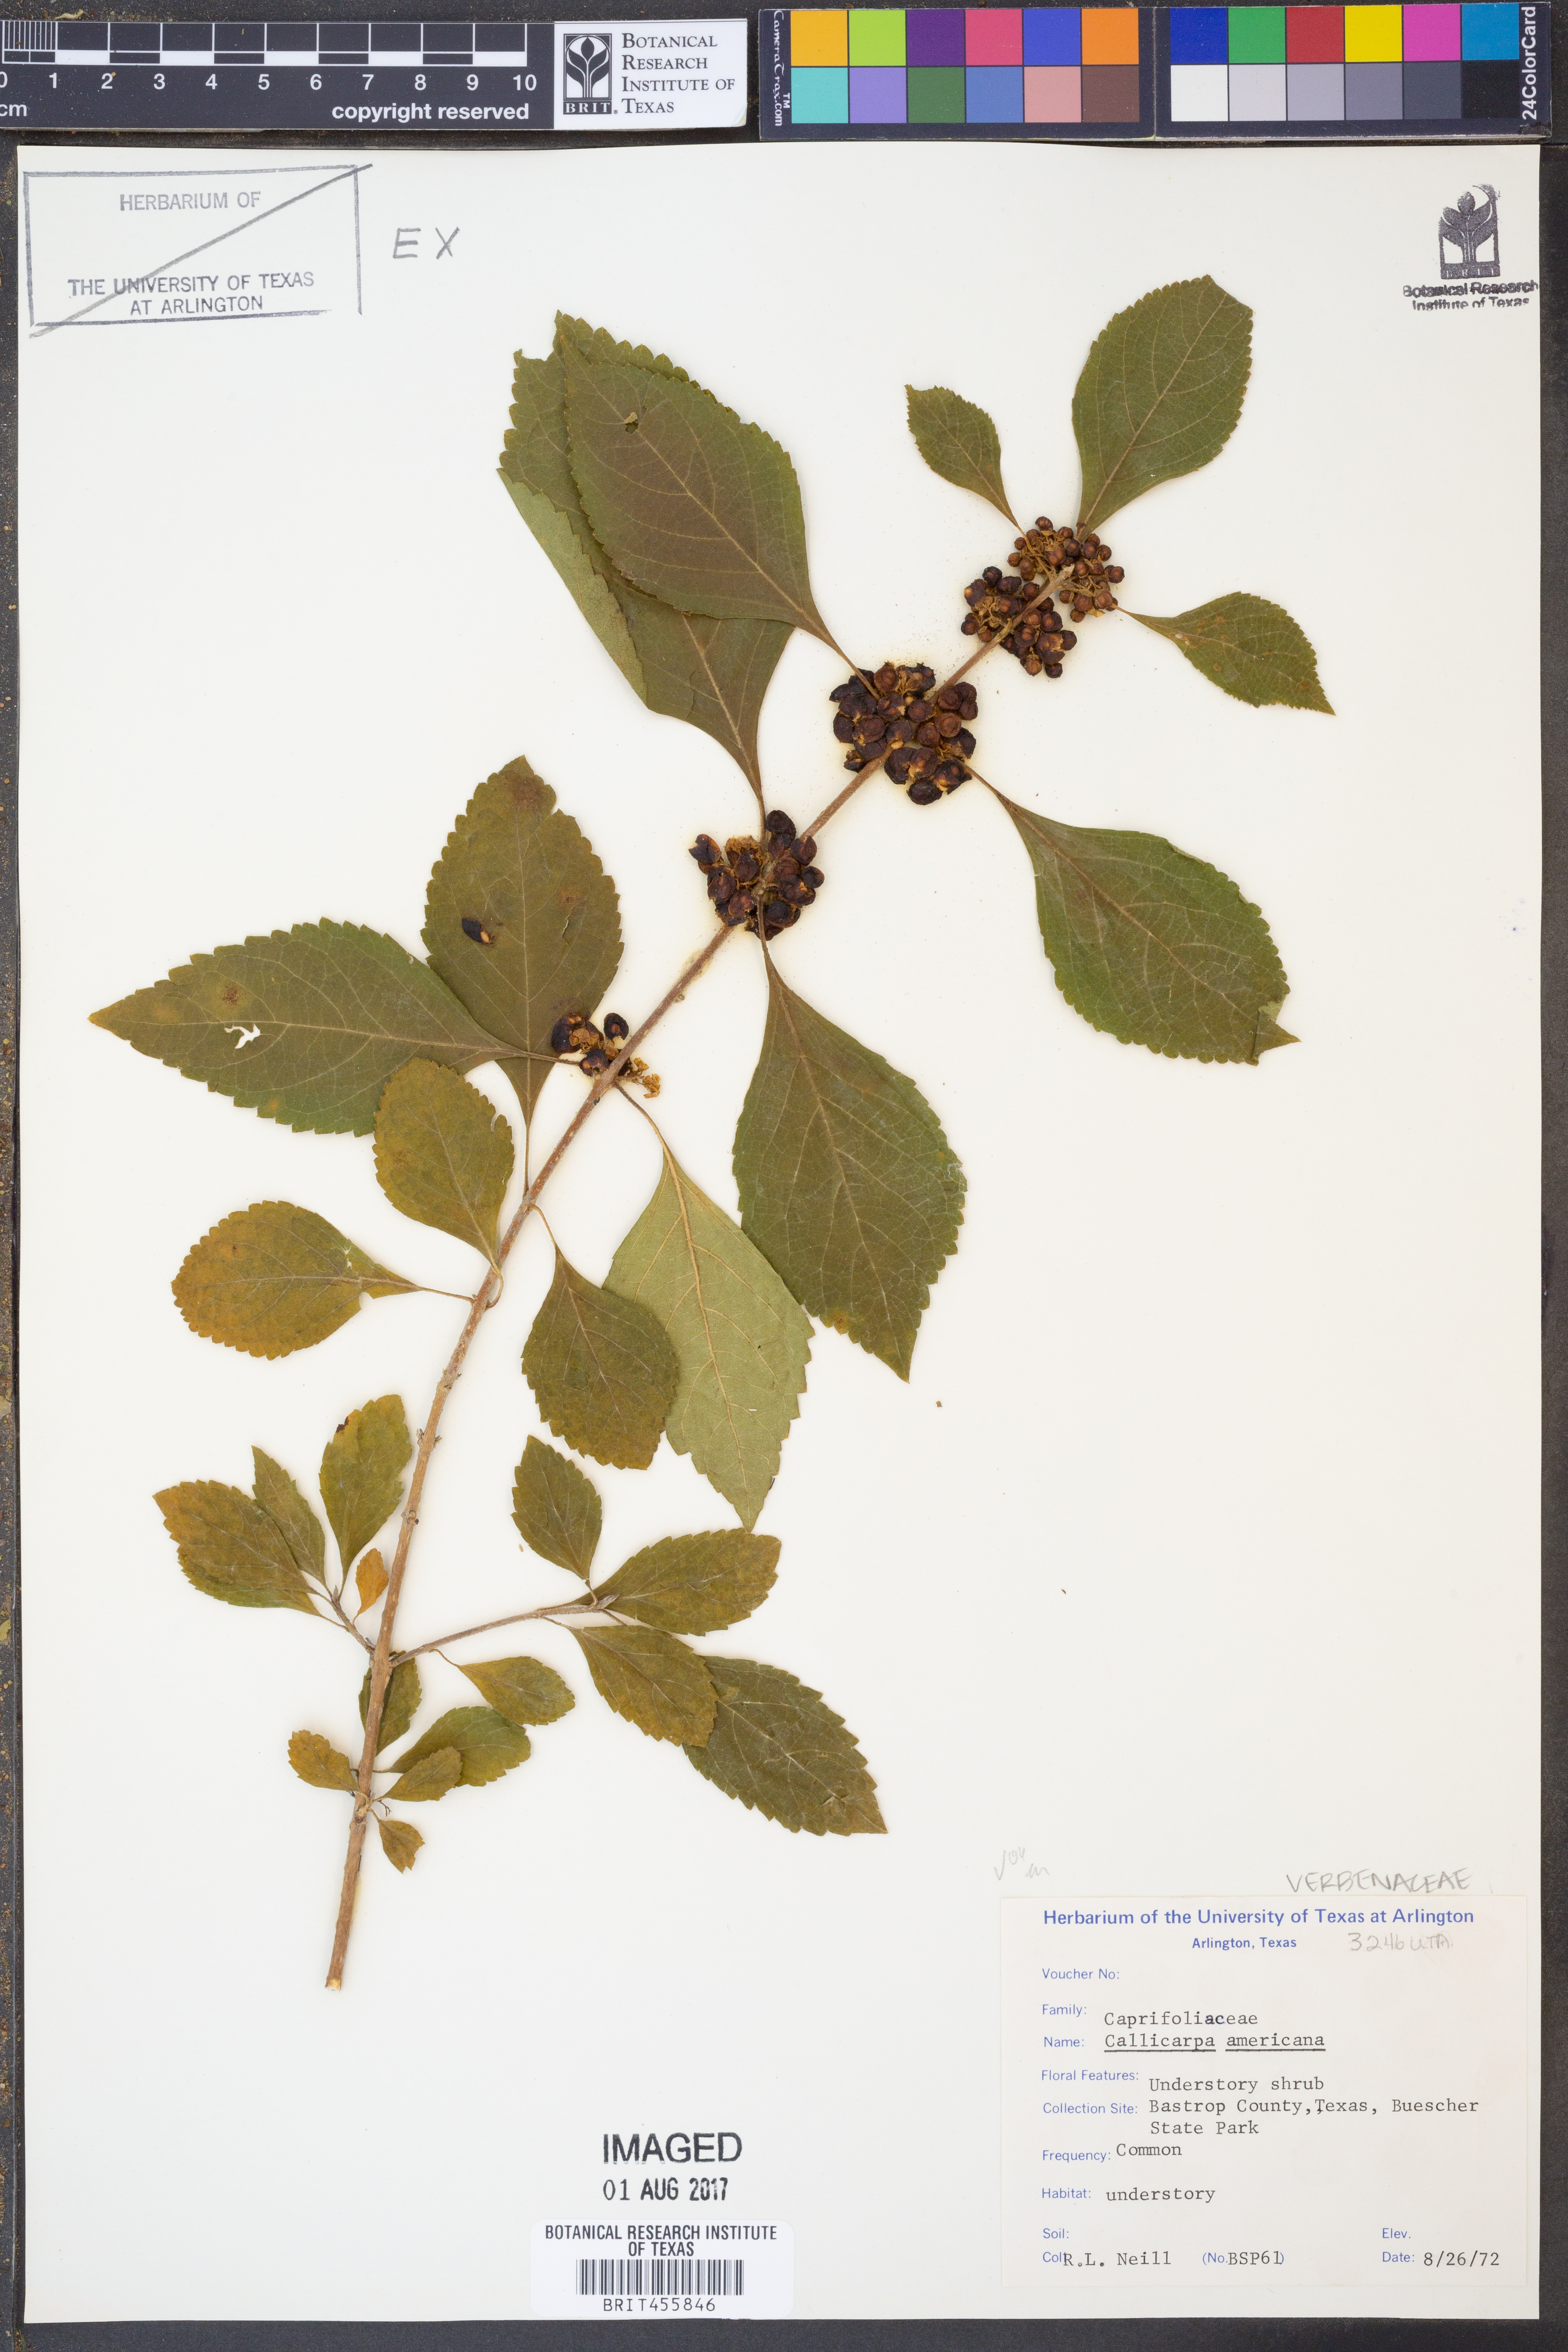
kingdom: Plantae
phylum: Tracheophyta
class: Magnoliopsida
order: Lamiales
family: Lamiaceae
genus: Callicarpa
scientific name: Callicarpa americana
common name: American beautyberry
